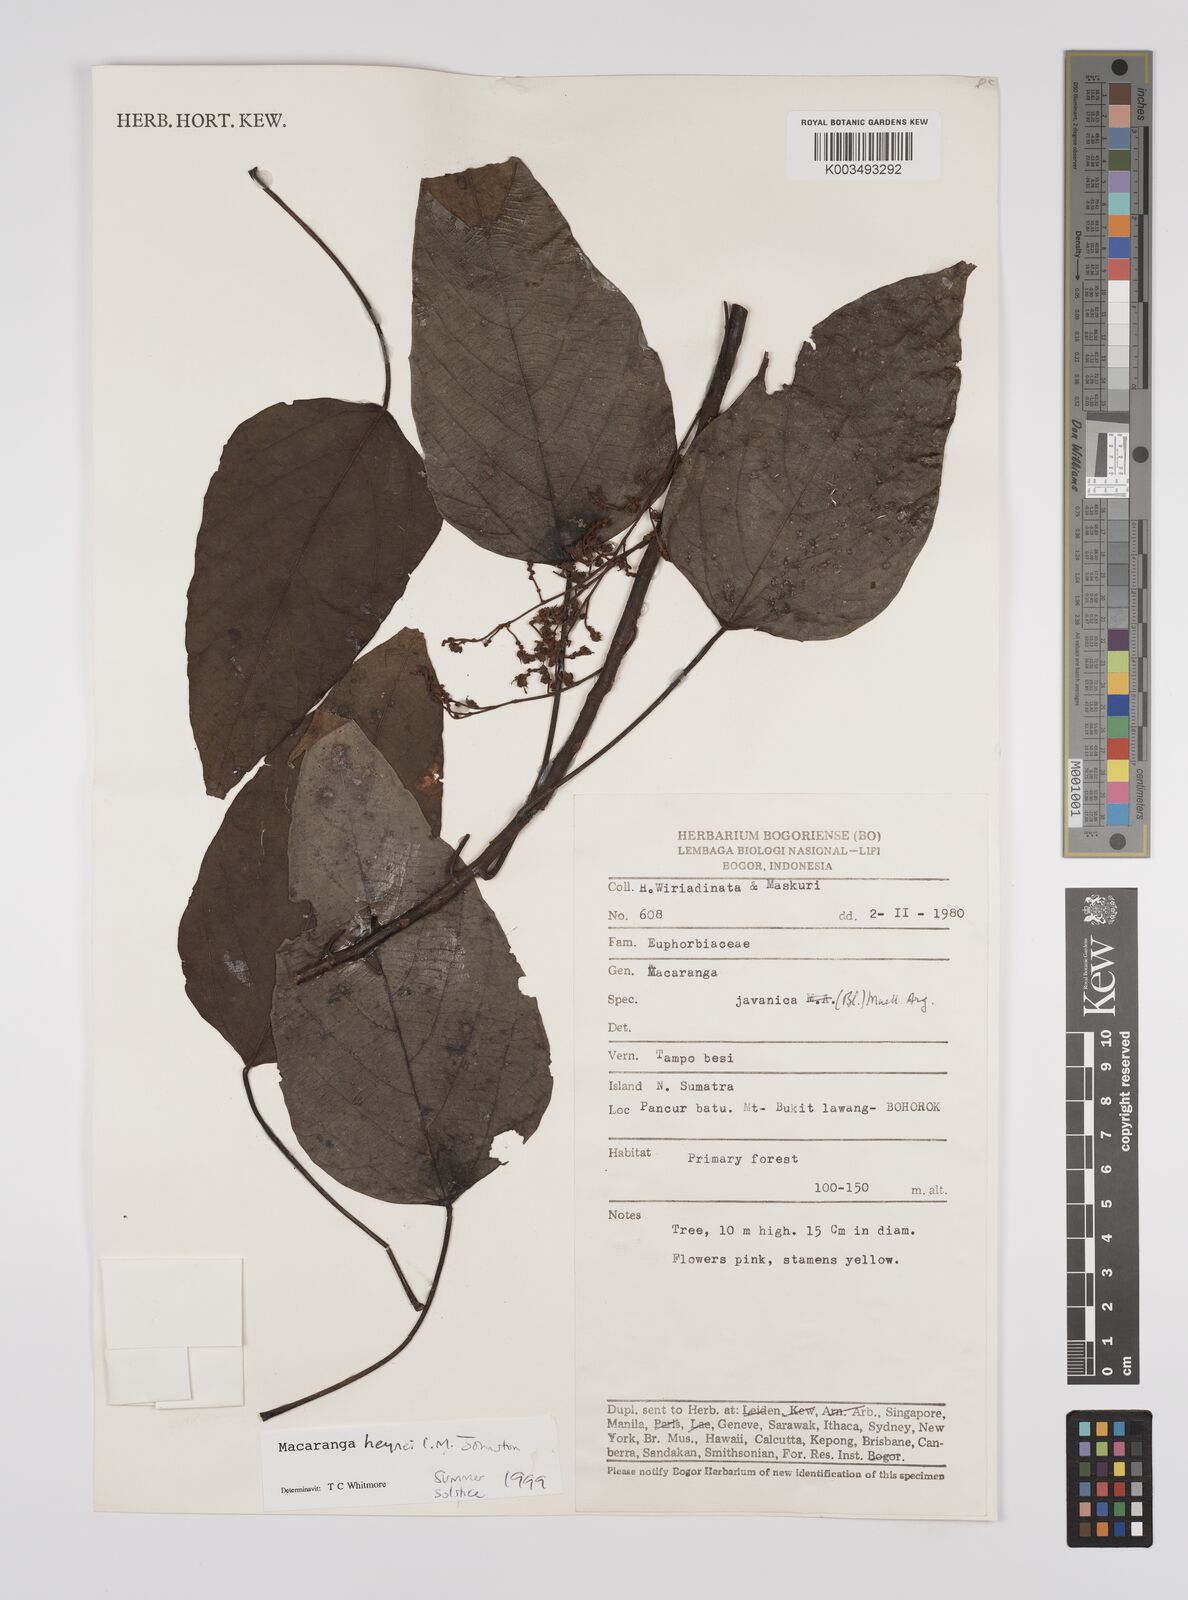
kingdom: Plantae
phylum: Tracheophyta
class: Magnoliopsida
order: Malpighiales
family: Euphorbiaceae
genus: Macaranga
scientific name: Macaranga heynei
